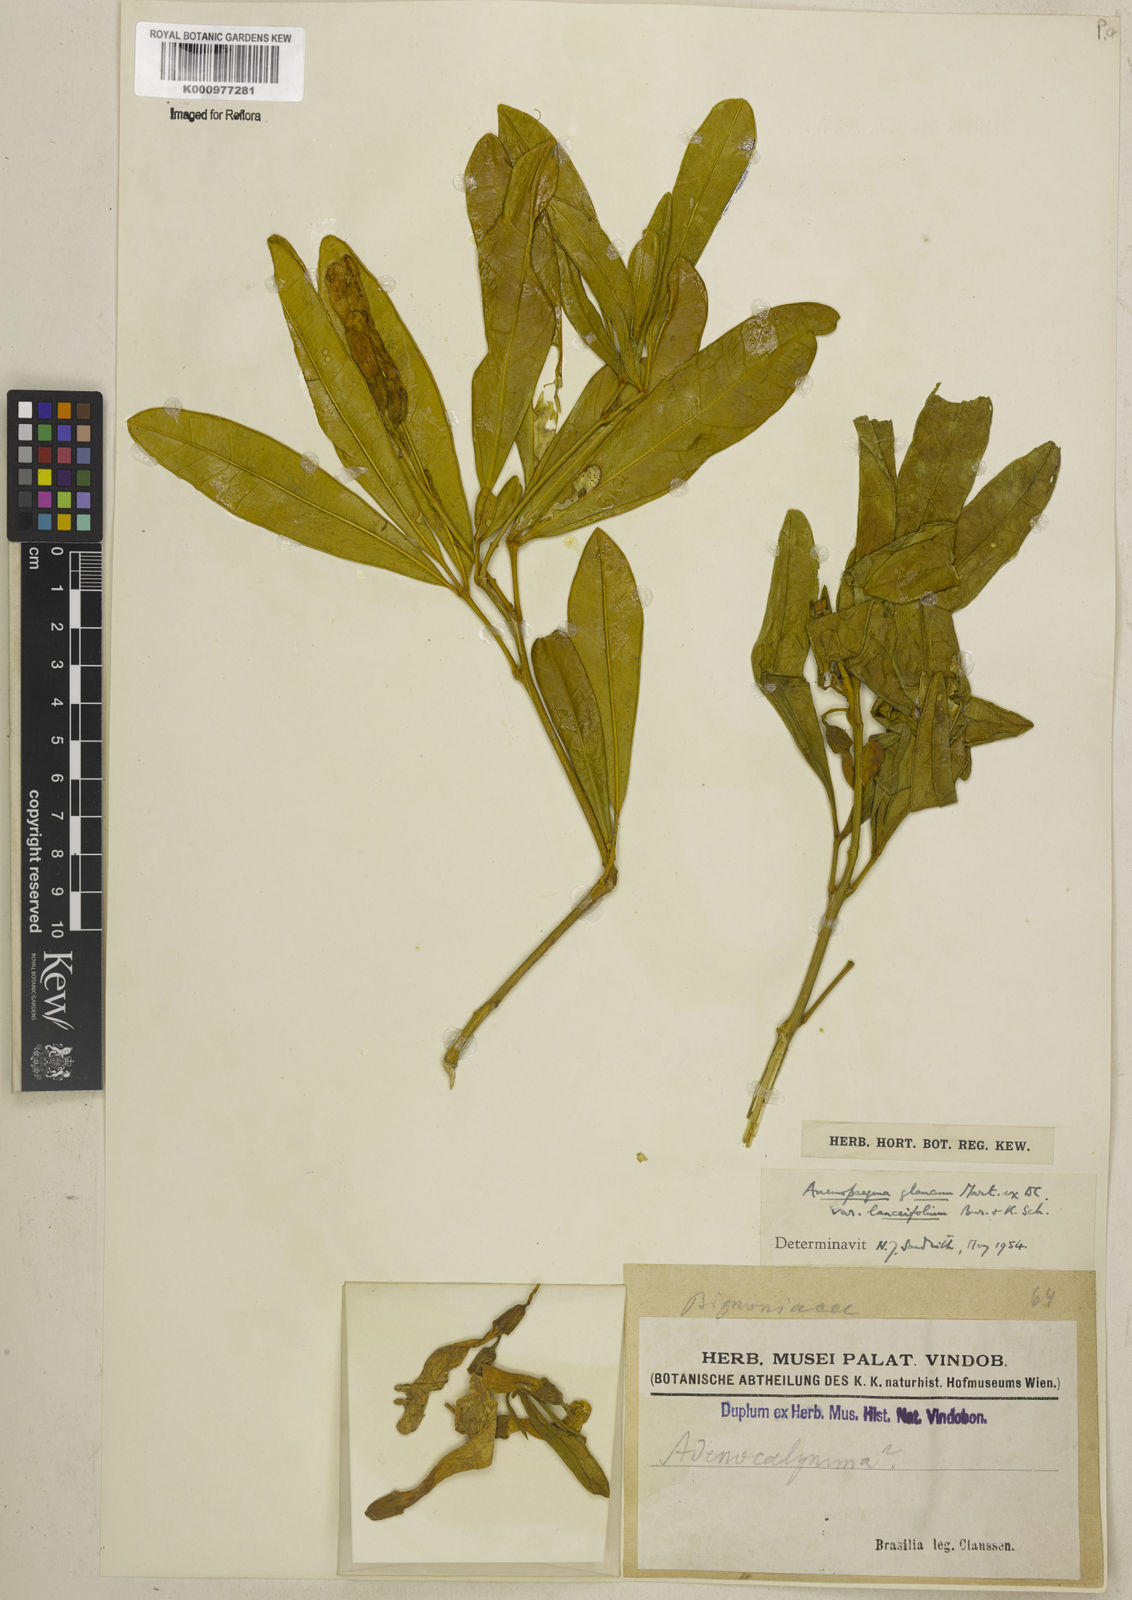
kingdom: Plantae
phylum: Tracheophyta
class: Magnoliopsida
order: Lamiales
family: Bignoniaceae
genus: Anemopaegma
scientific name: Anemopaegma glaucum
